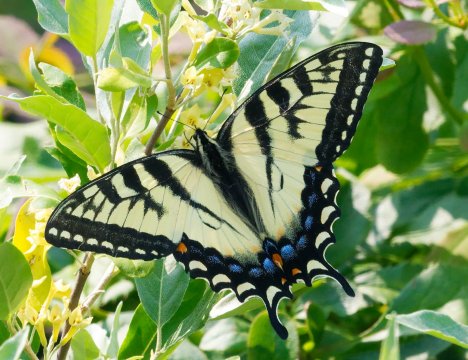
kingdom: Animalia
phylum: Arthropoda
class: Insecta
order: Lepidoptera
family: Papilionidae
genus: Papilio
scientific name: Papilio
